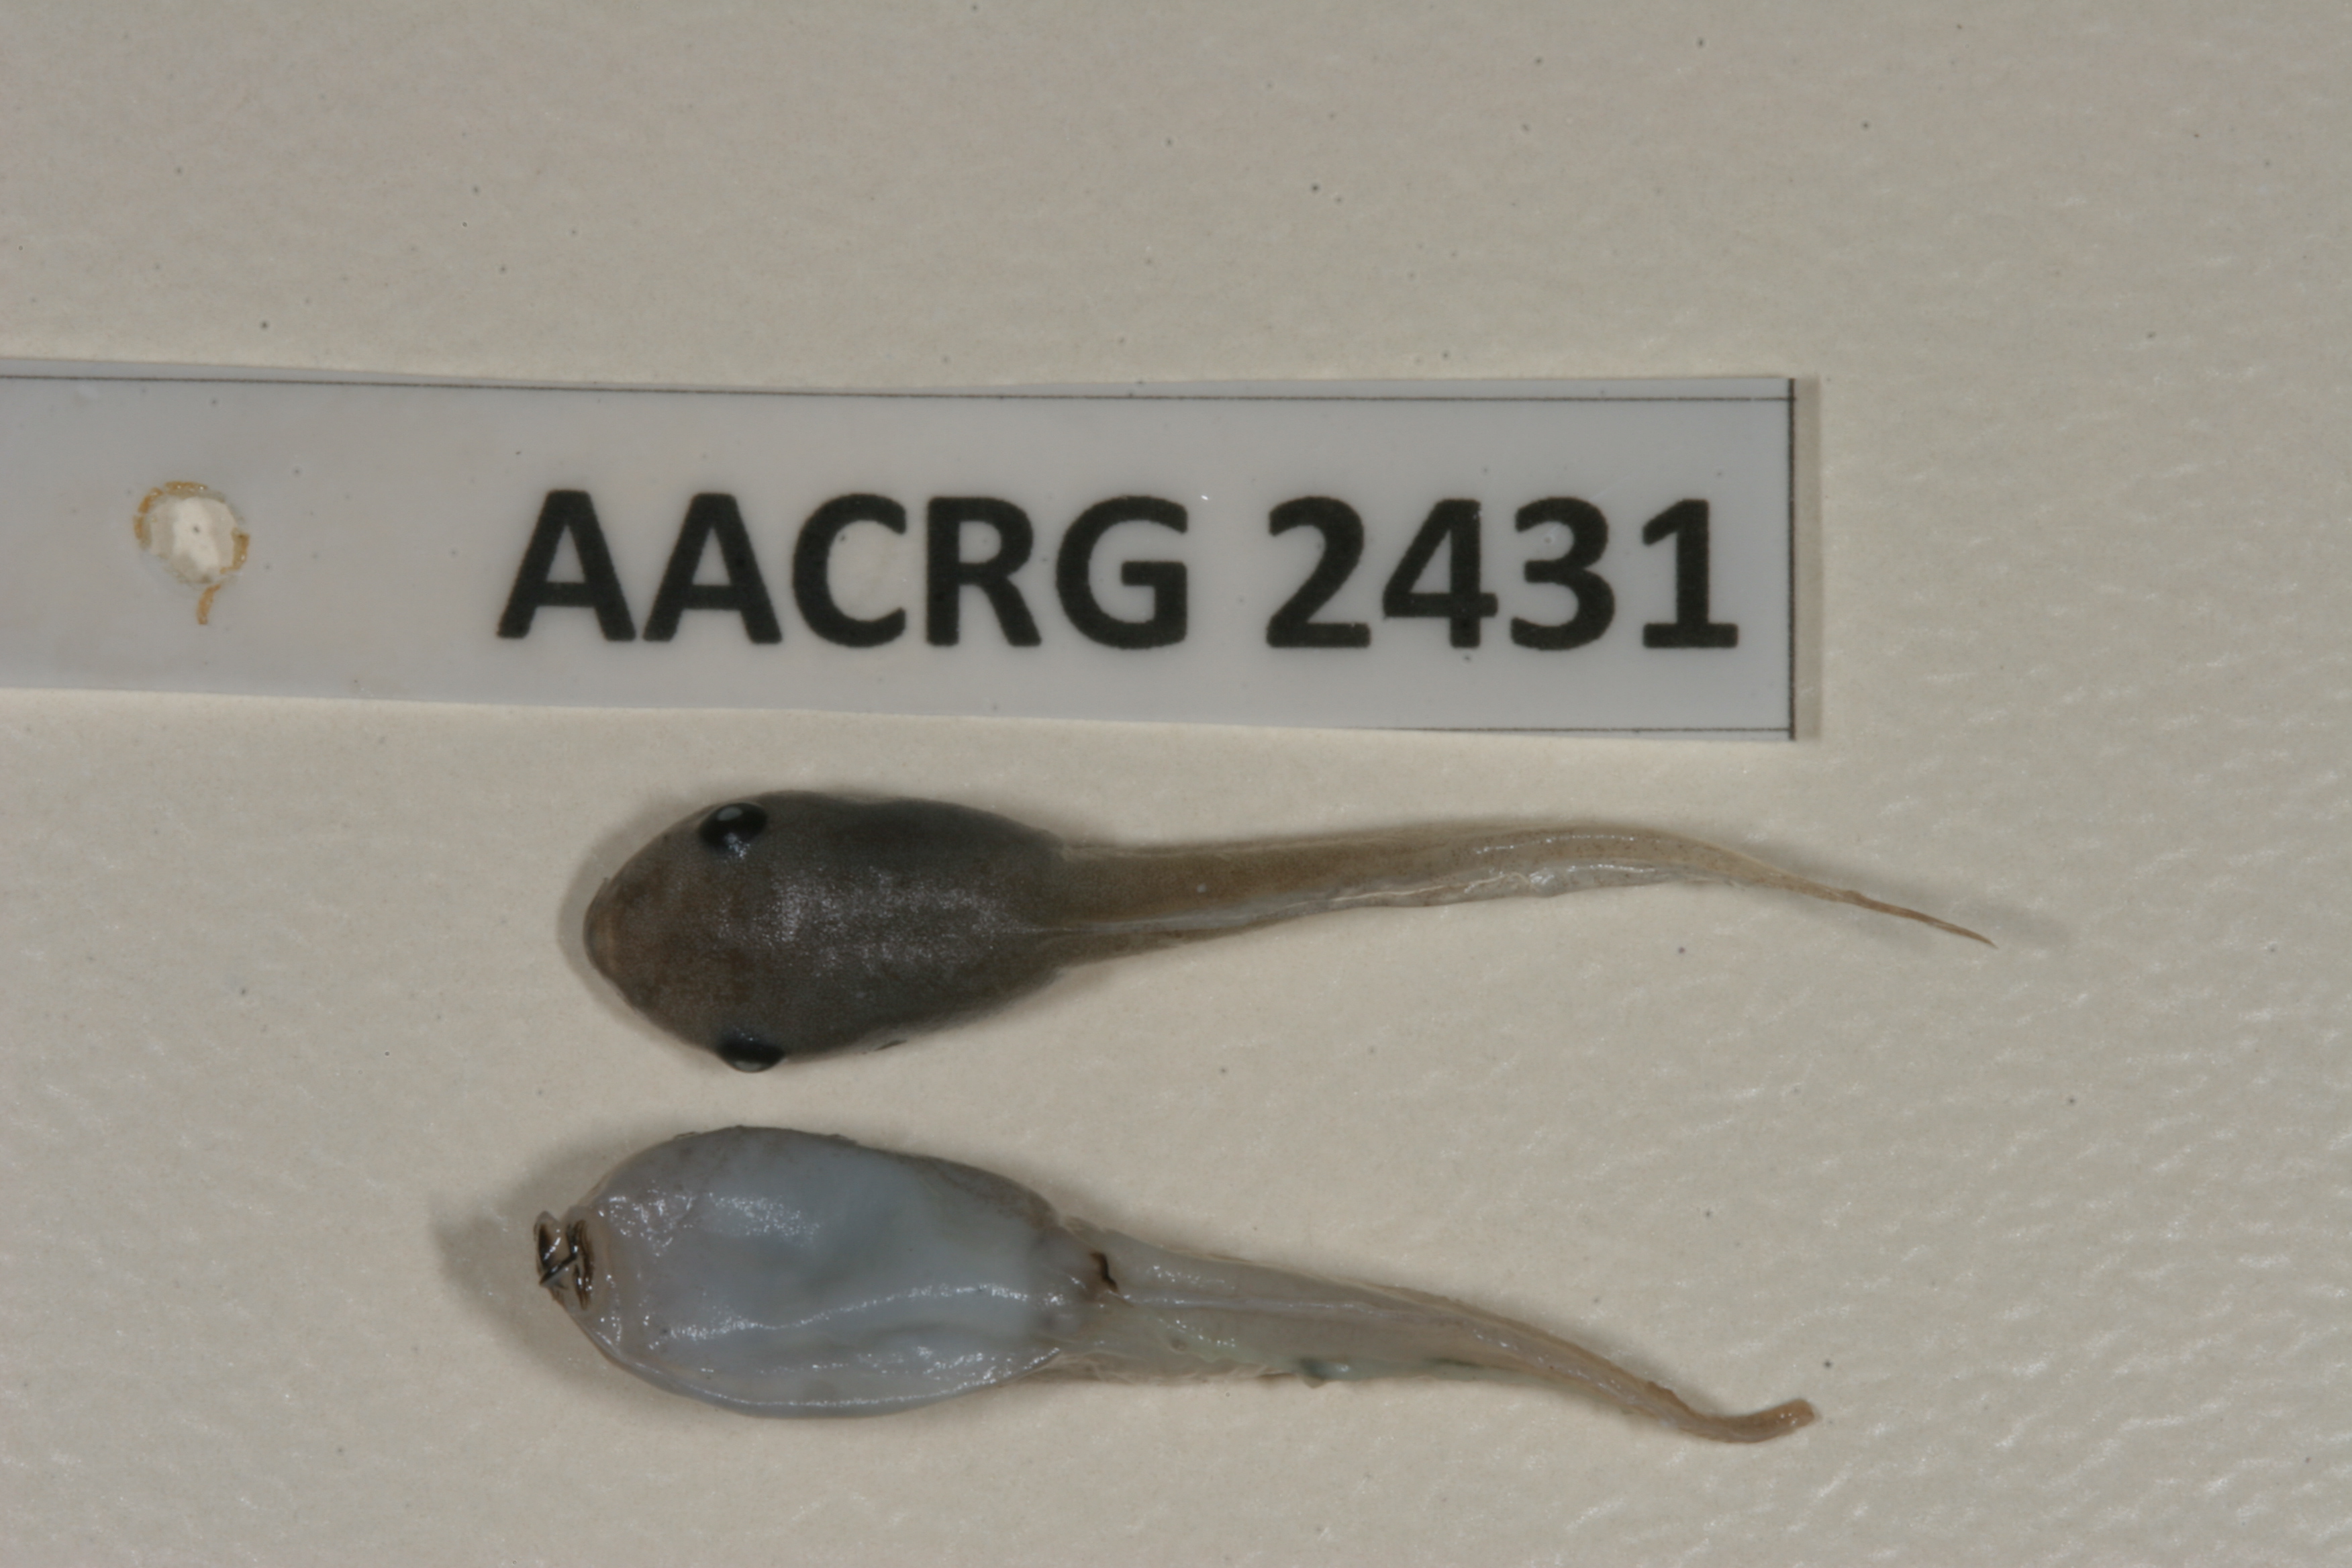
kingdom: Animalia
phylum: Chordata
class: Amphibia
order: Anura
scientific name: Anura
